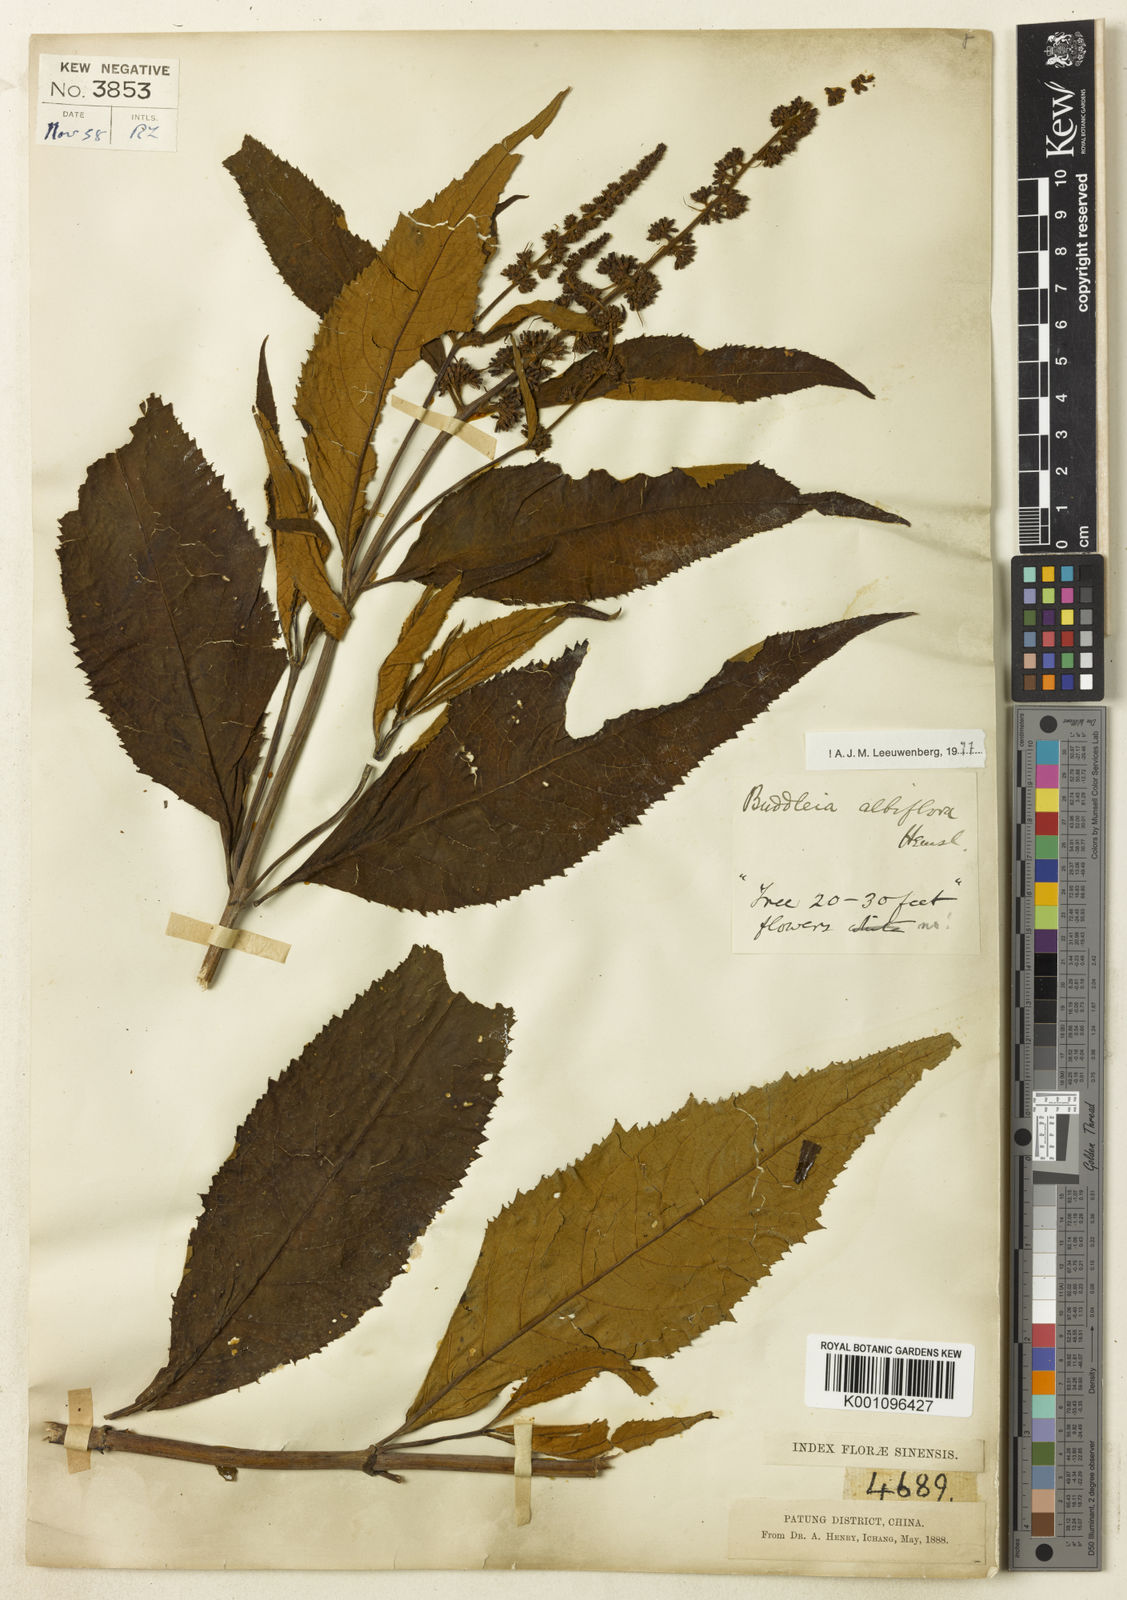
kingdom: Plantae
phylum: Tracheophyta
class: Magnoliopsida
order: Lamiales
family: Scrophulariaceae
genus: Buddleja
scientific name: Buddleja albiflora
